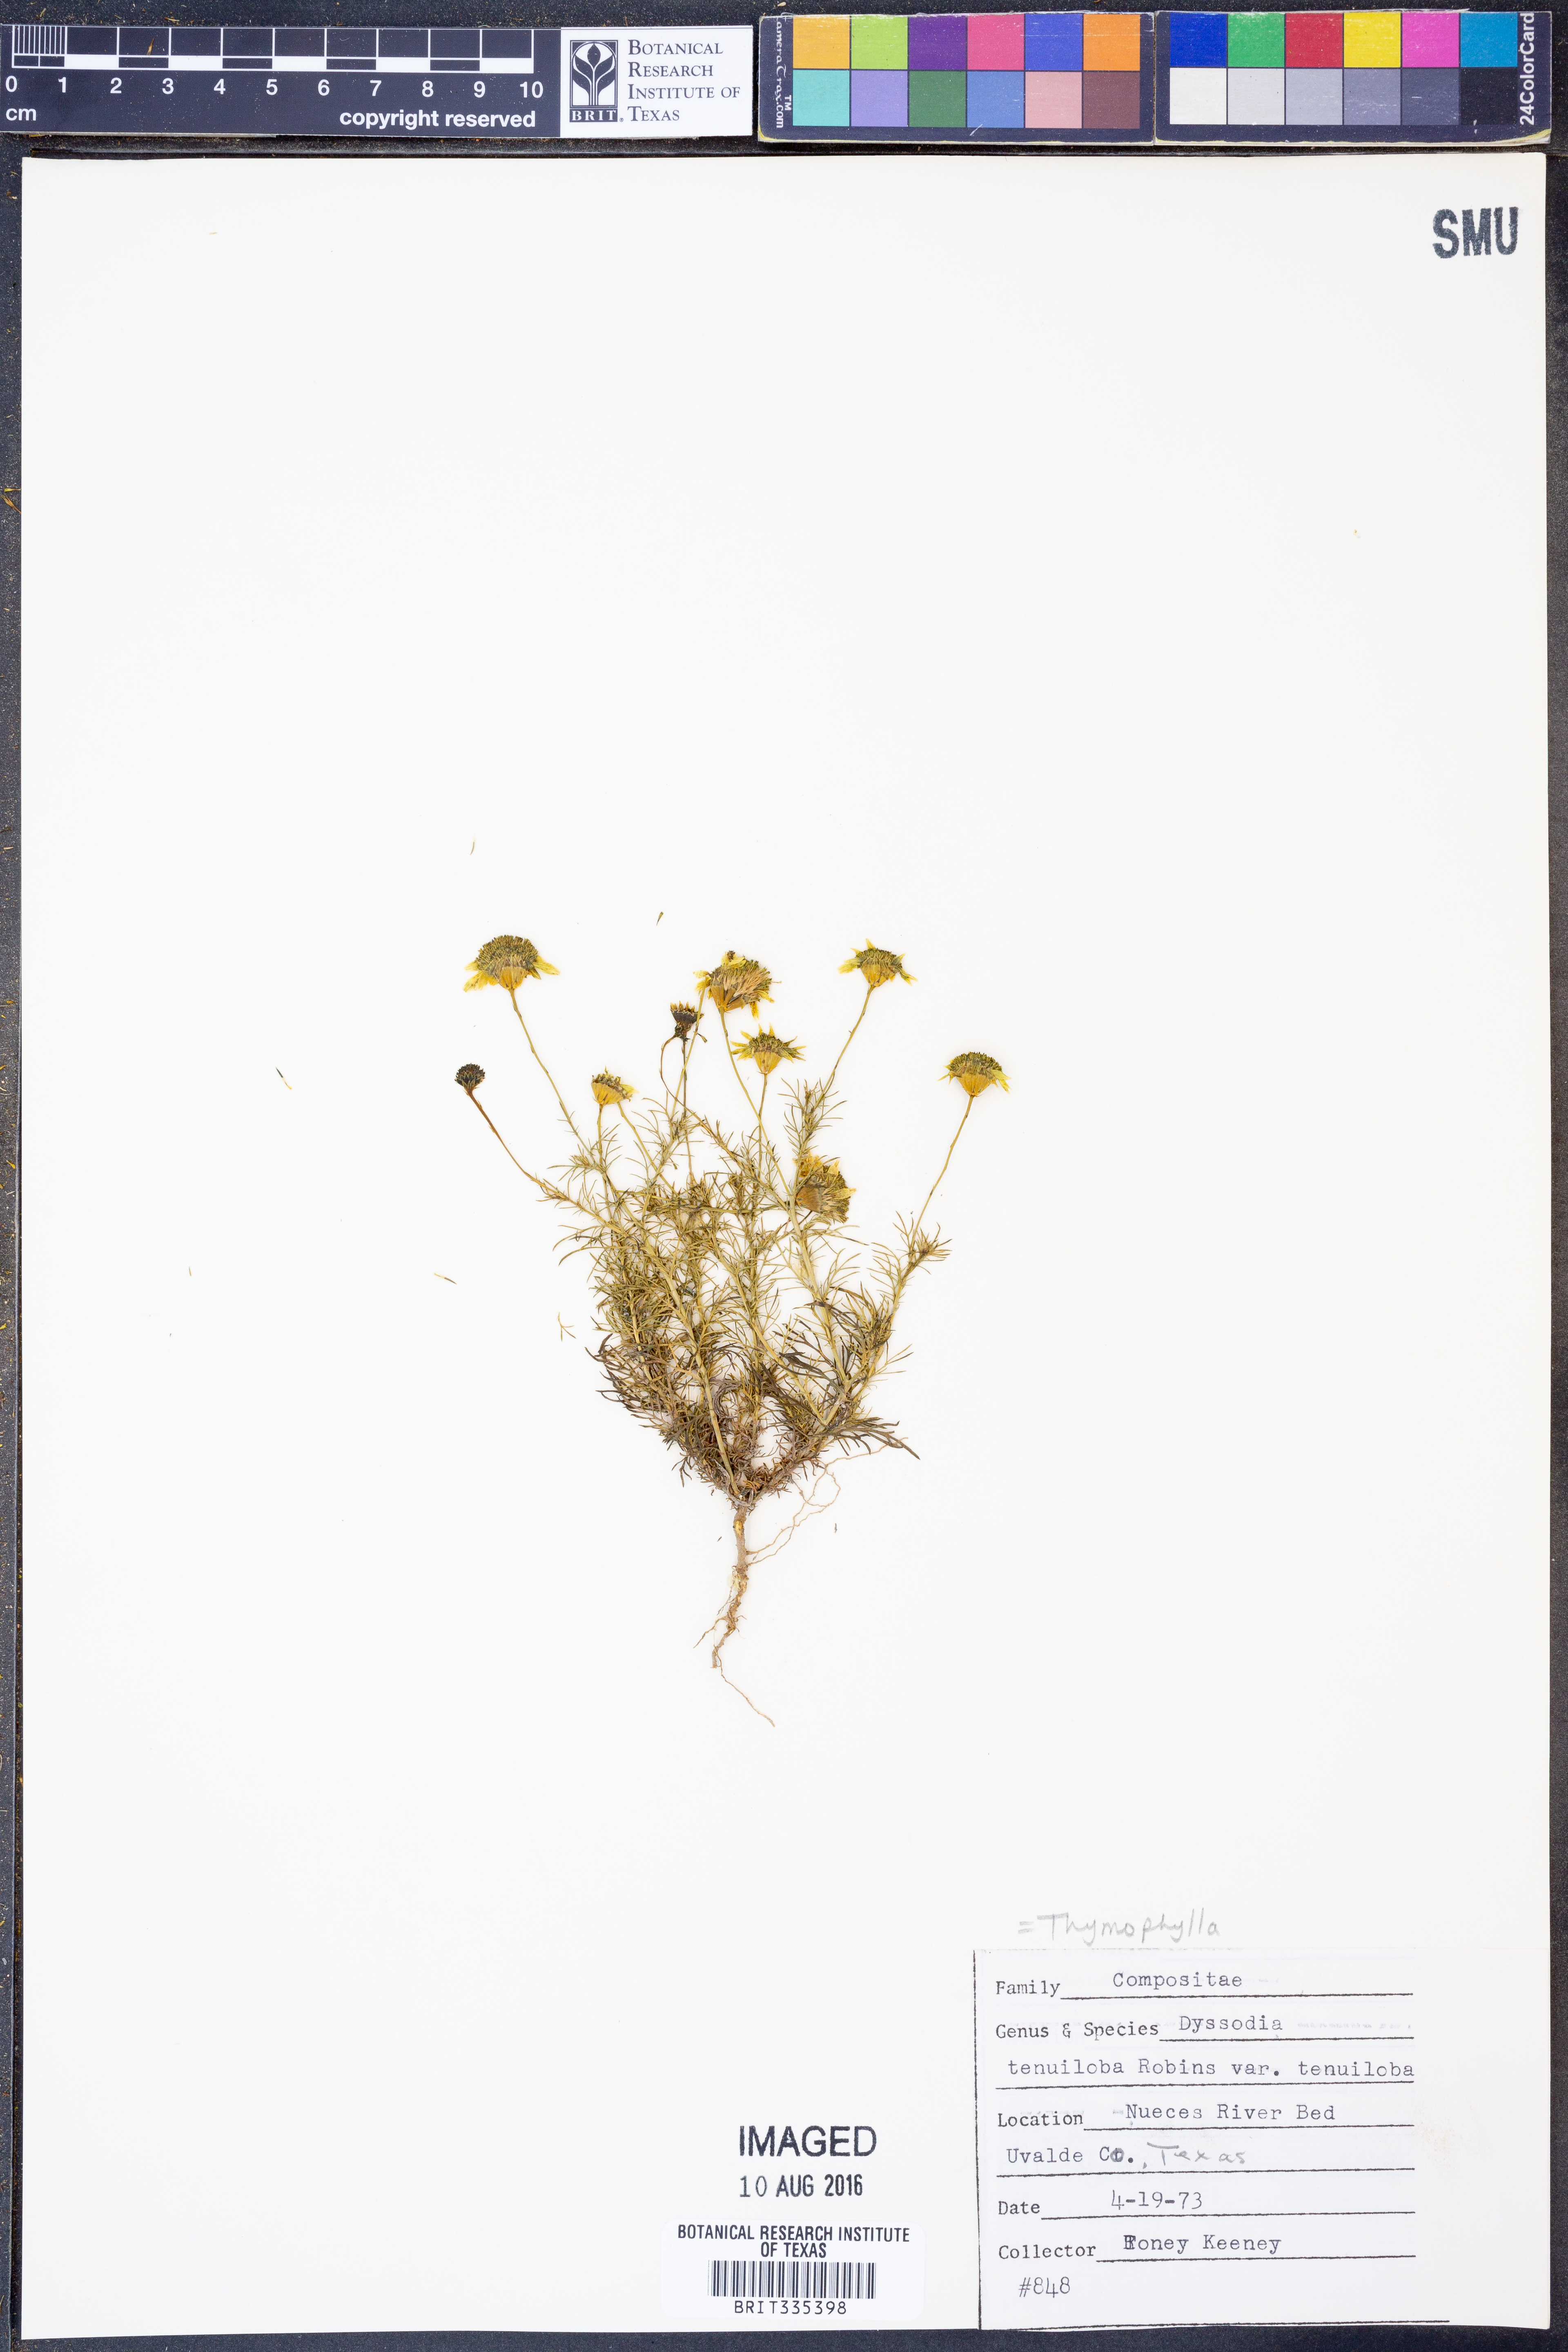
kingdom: Plantae
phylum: Tracheophyta
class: Magnoliopsida
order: Asterales
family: Asteraceae
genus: Thymophylla
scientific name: Thymophylla tenuiloba
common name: Dahlberg's daisy
